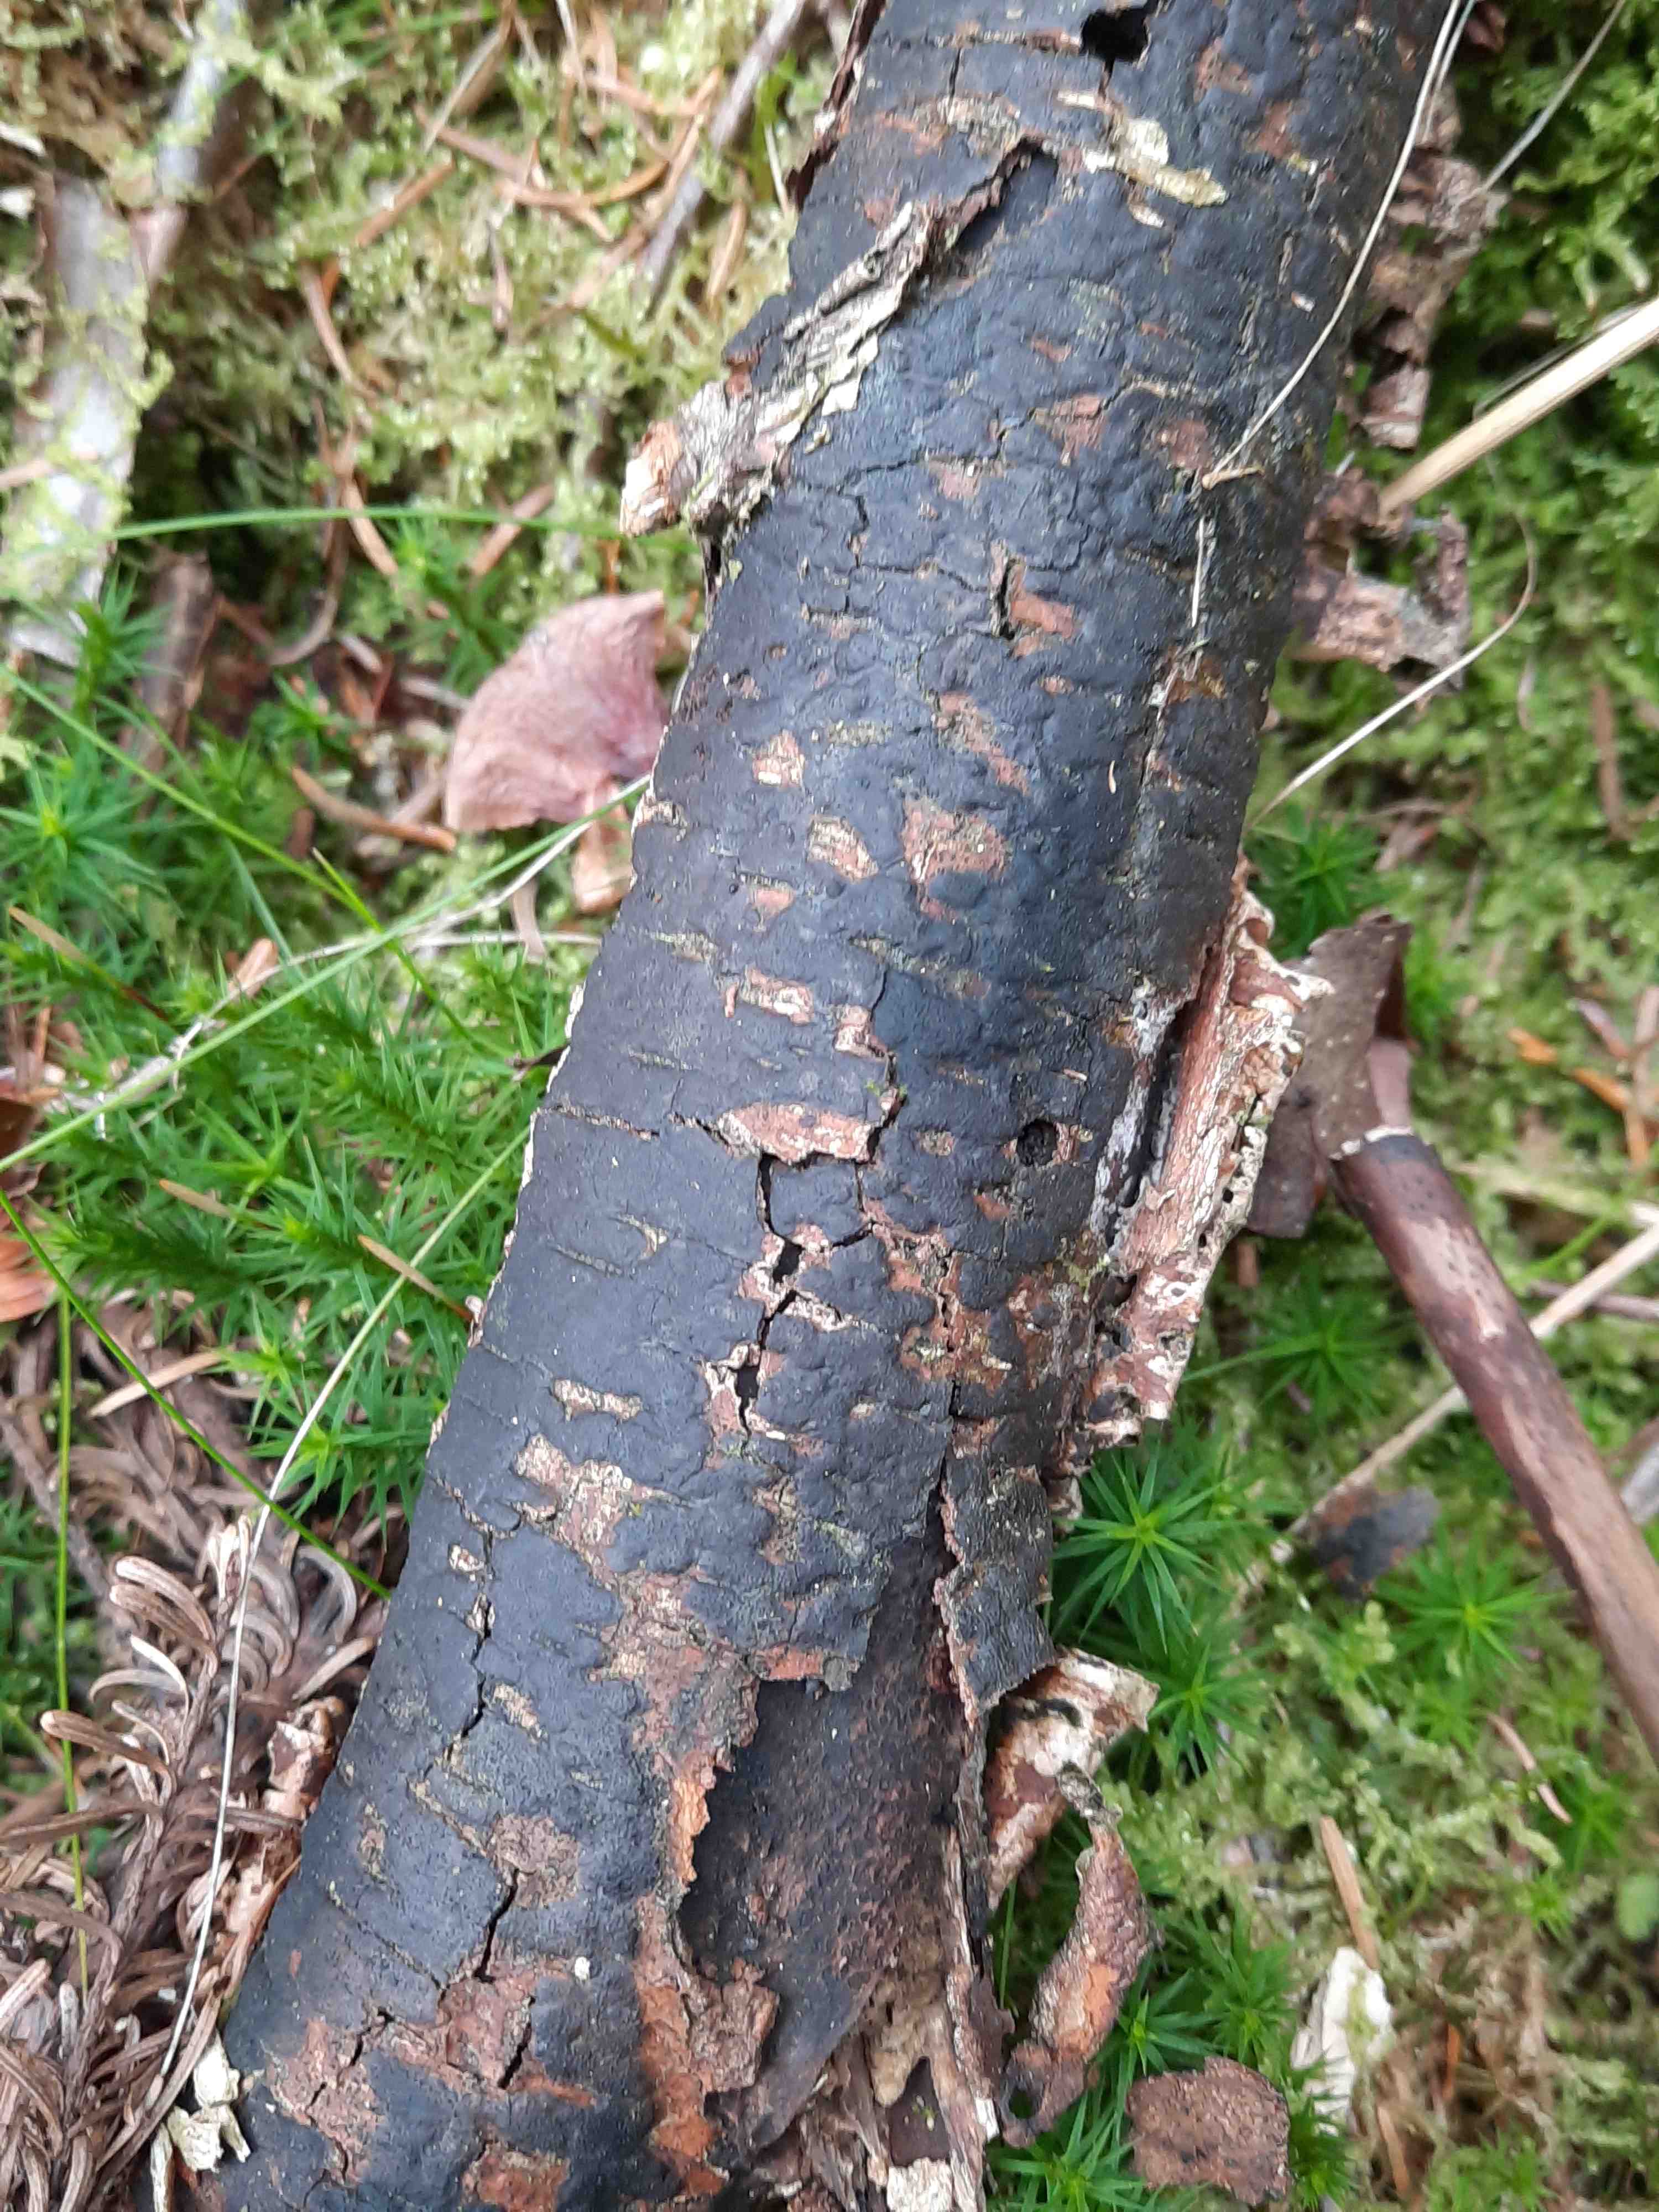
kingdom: Fungi
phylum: Ascomycota
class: Sordariomycetes
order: Xylariales
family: Diatrypaceae
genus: Diatrype
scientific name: Diatrype
